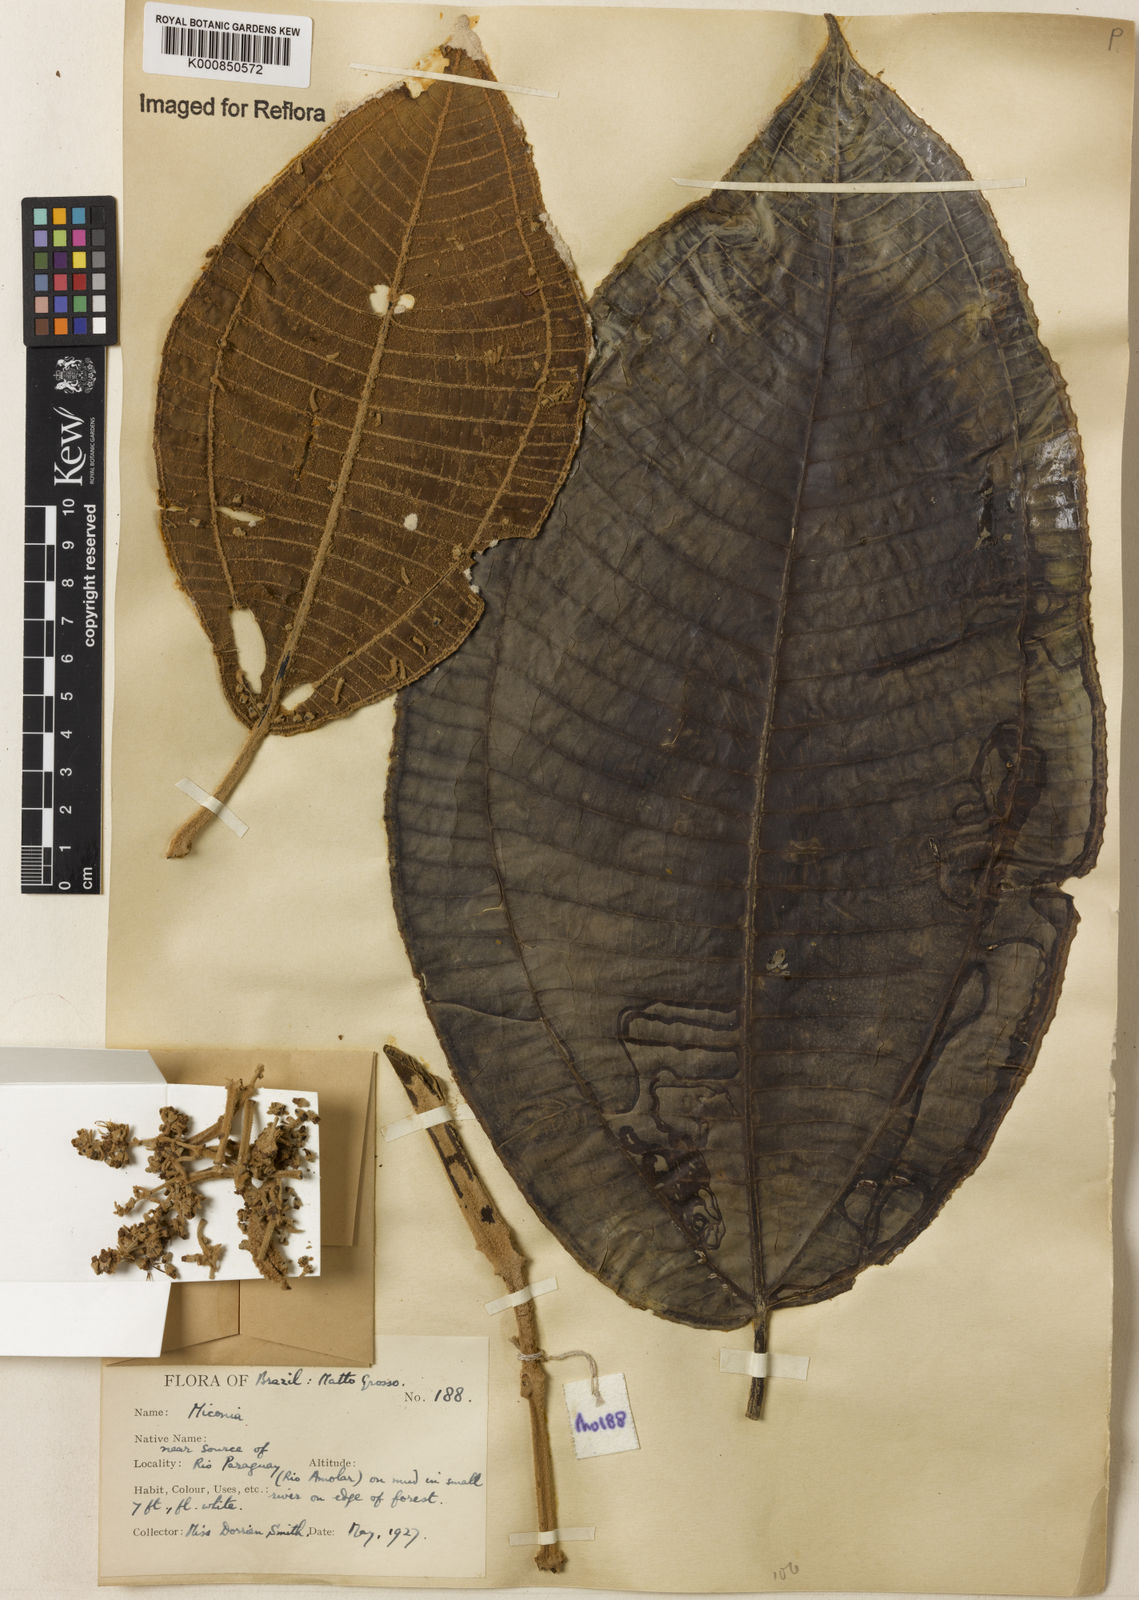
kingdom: Plantae
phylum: Tracheophyta
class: Magnoliopsida
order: Myrtales
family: Melastomataceae
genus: Miconia
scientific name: Miconia
